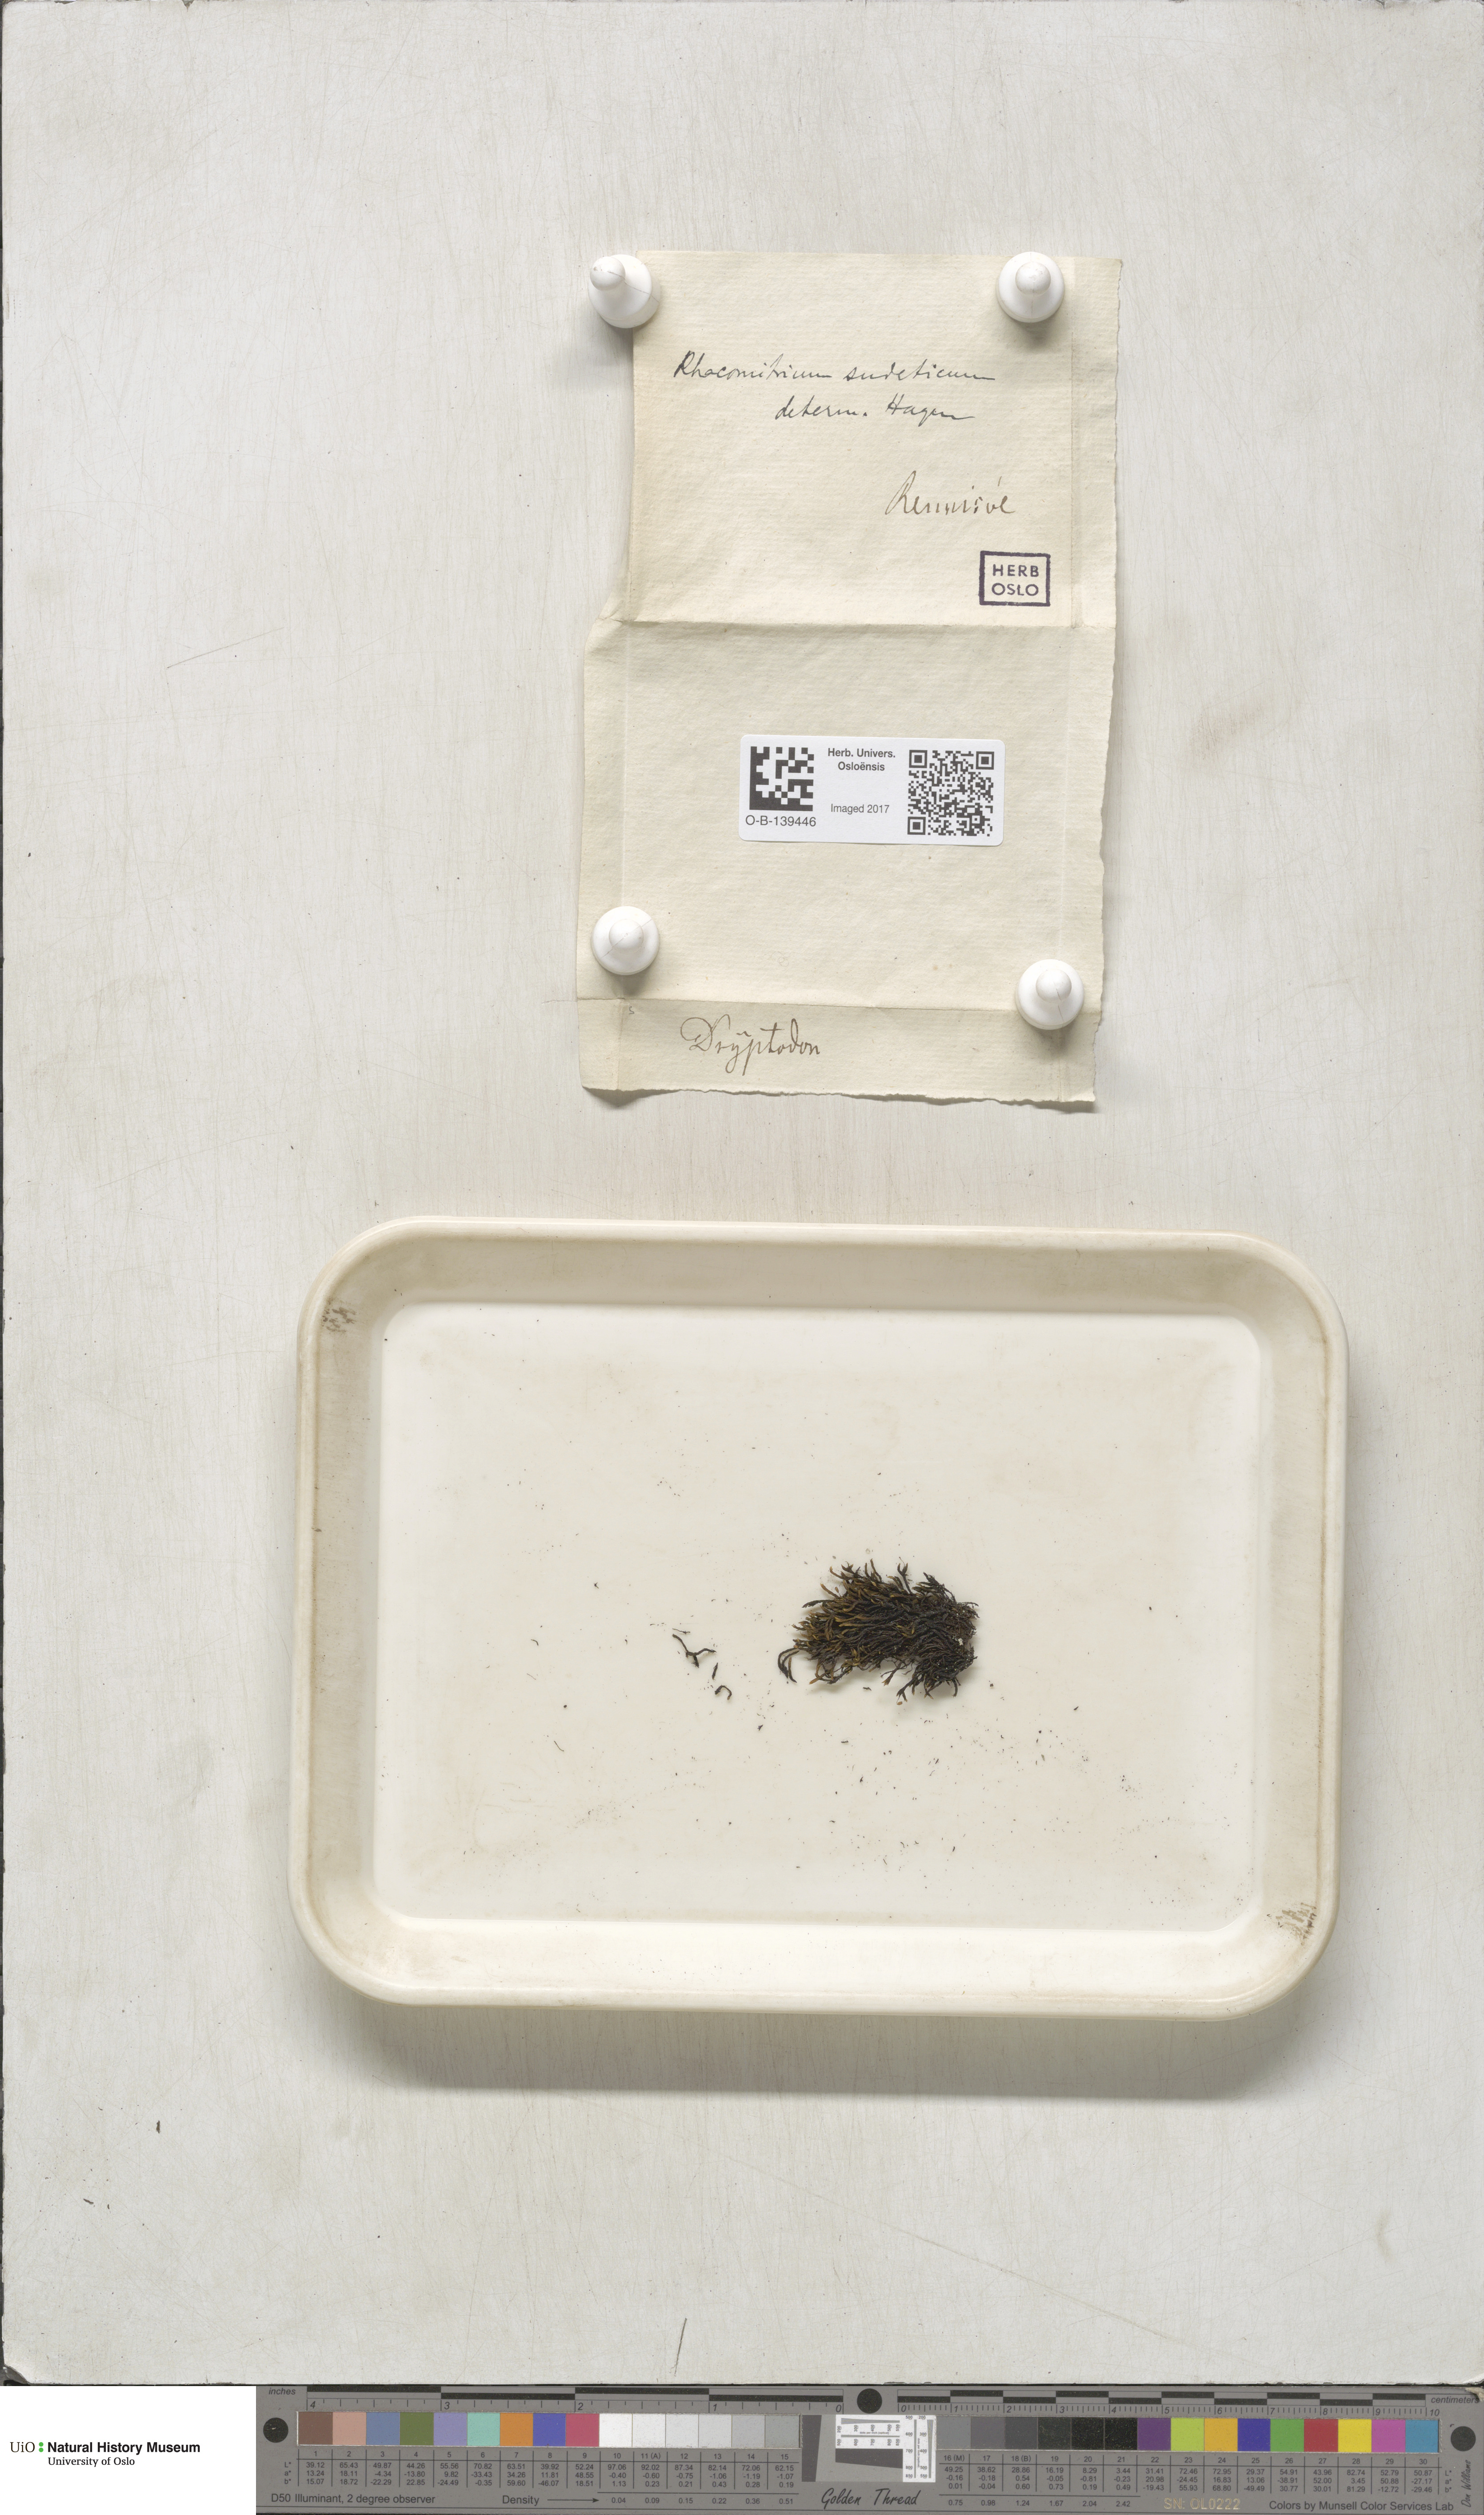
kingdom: Plantae
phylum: Bryophyta
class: Bryopsida
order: Grimmiales
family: Grimmiaceae
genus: Bucklandiella
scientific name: Bucklandiella sudetica
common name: Slender fringe-moss
